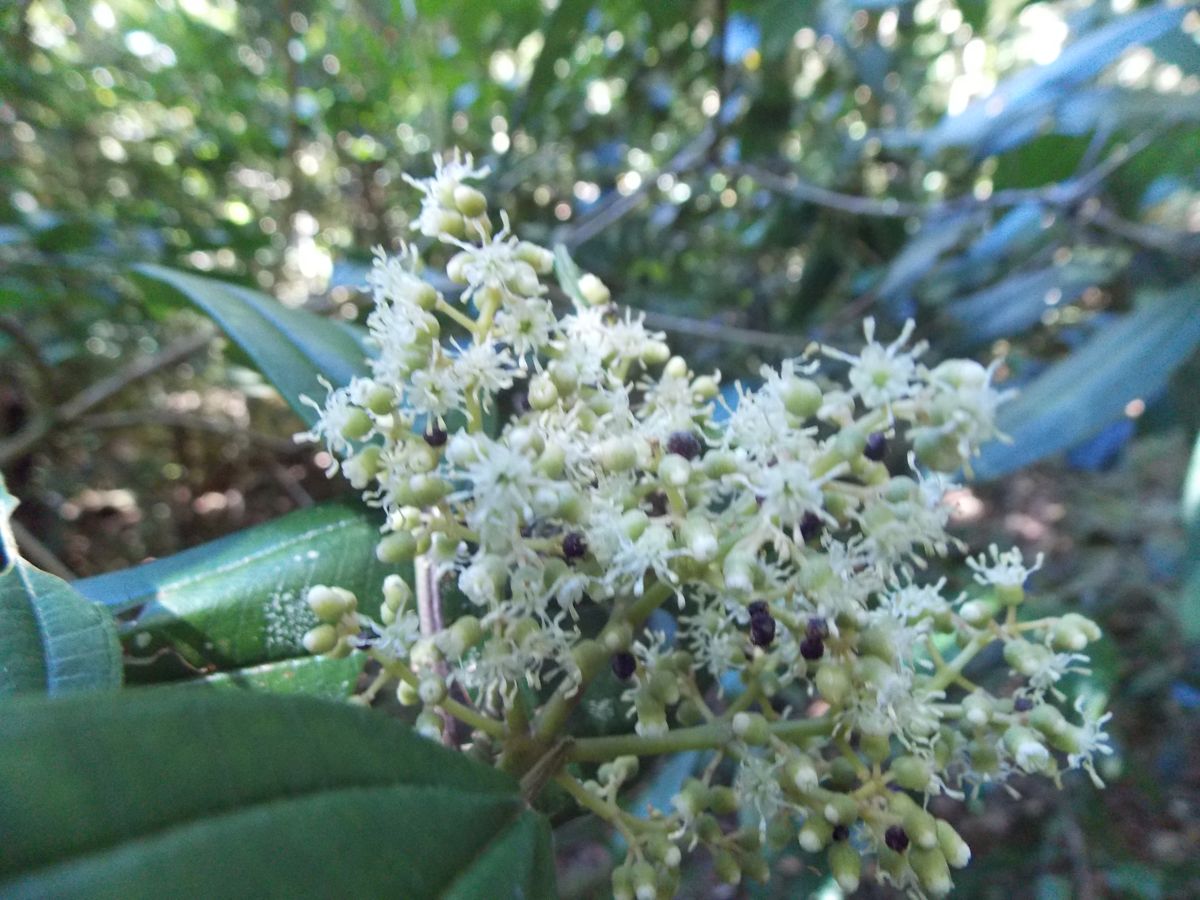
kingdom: Plantae
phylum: Tracheophyta
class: Magnoliopsida
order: Myrtales
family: Melastomataceae
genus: Miconia
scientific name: Miconia theizans
